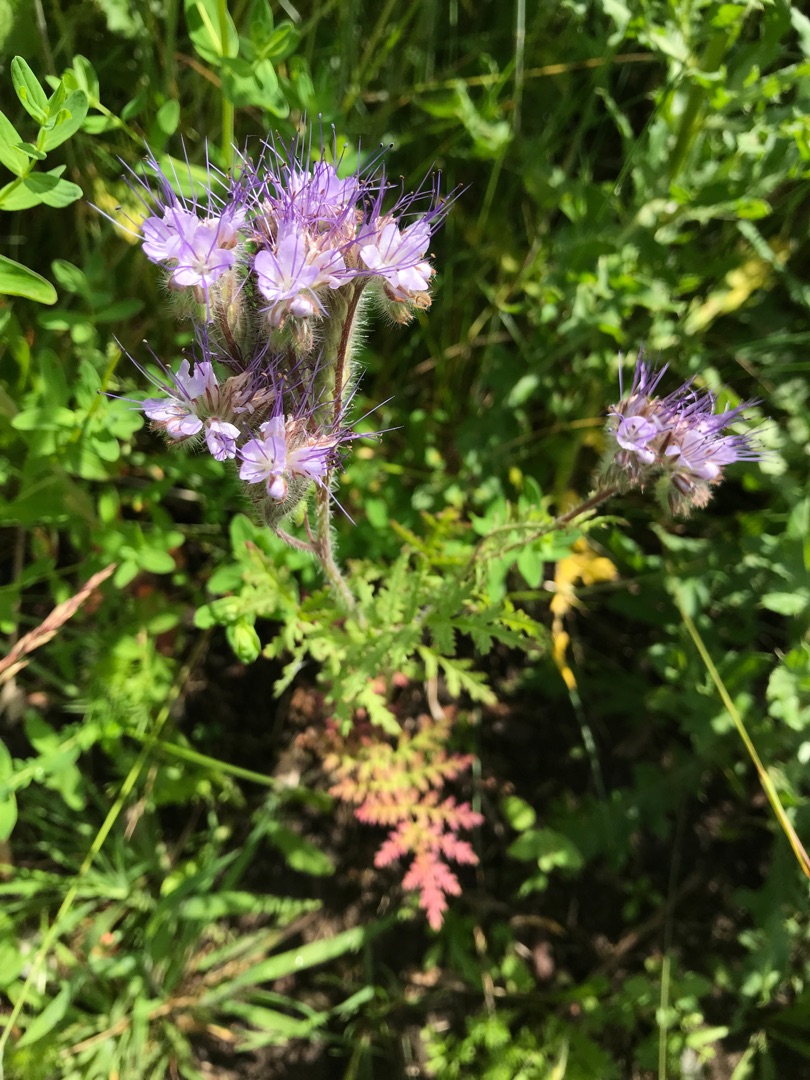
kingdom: Plantae
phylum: Tracheophyta
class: Magnoliopsida
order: Boraginales
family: Hydrophyllaceae
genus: Phacelia
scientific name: Phacelia tanacetifolia
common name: Honningurt
